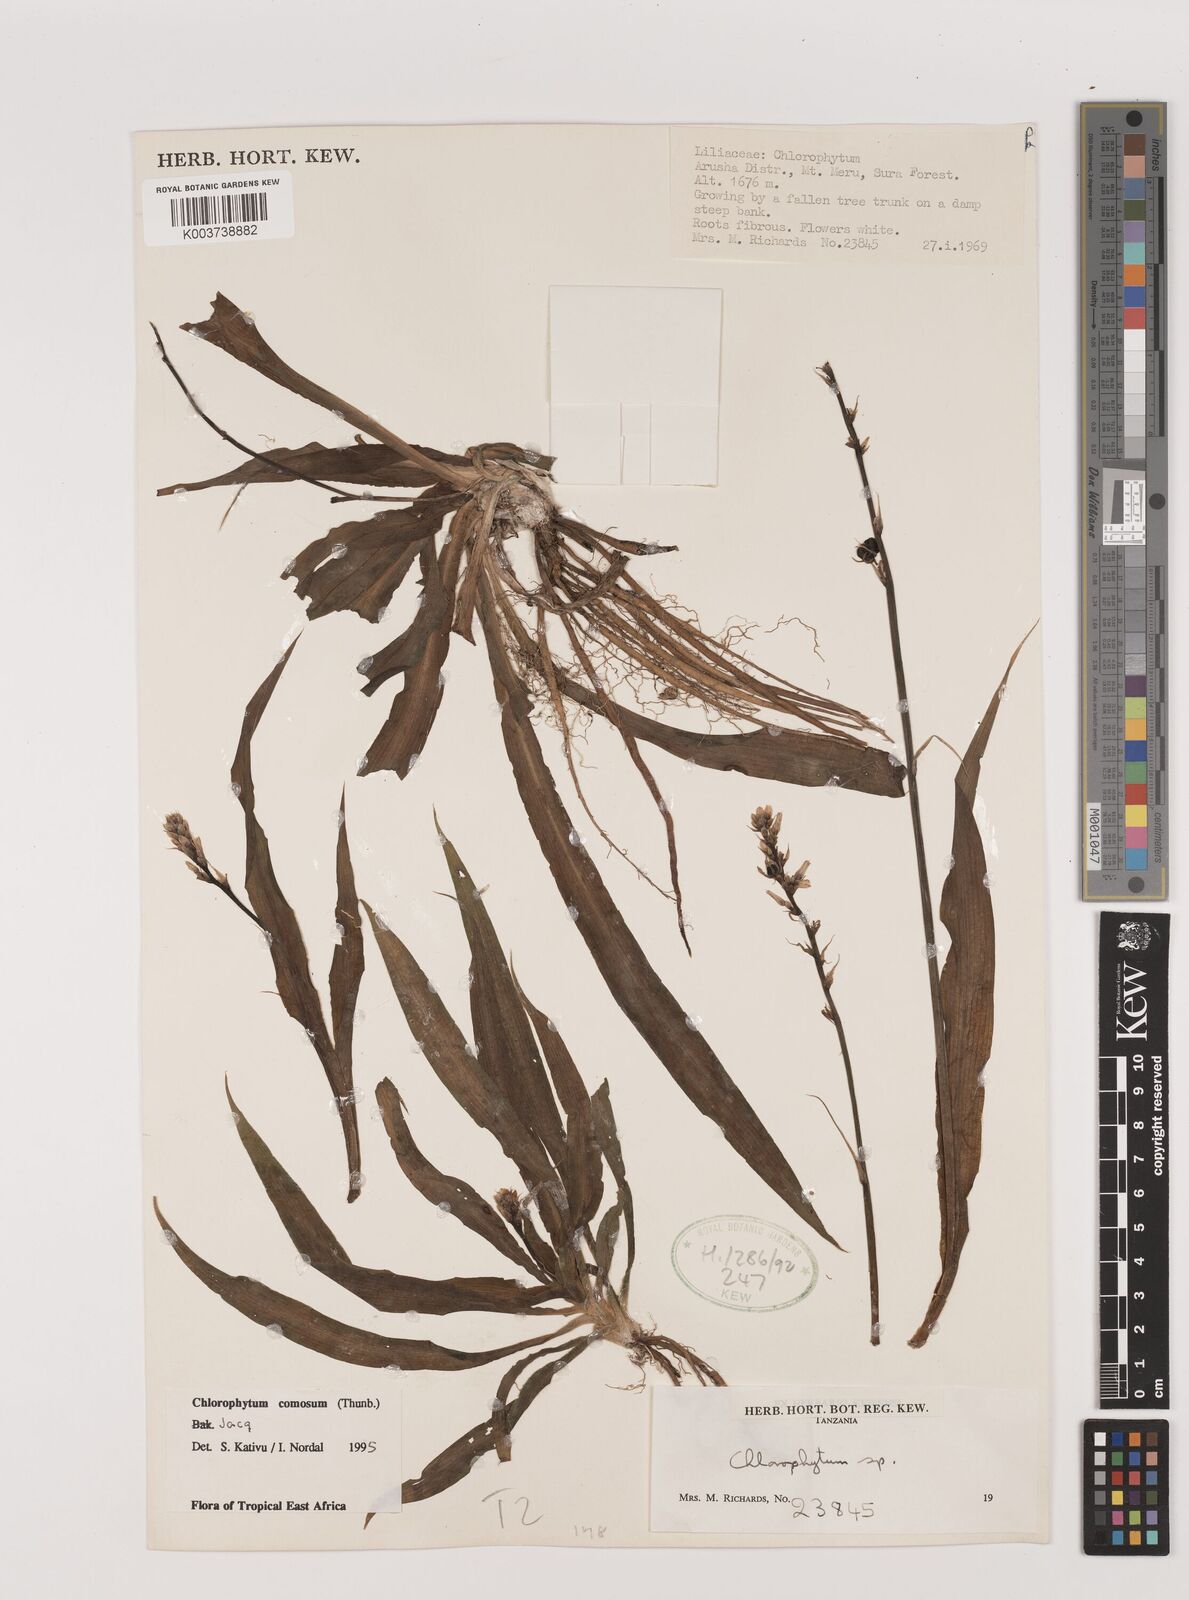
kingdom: Plantae
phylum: Tracheophyta
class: Liliopsida
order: Asparagales
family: Asparagaceae
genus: Chlorophytum
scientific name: Chlorophytum comosum
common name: Spider plant
